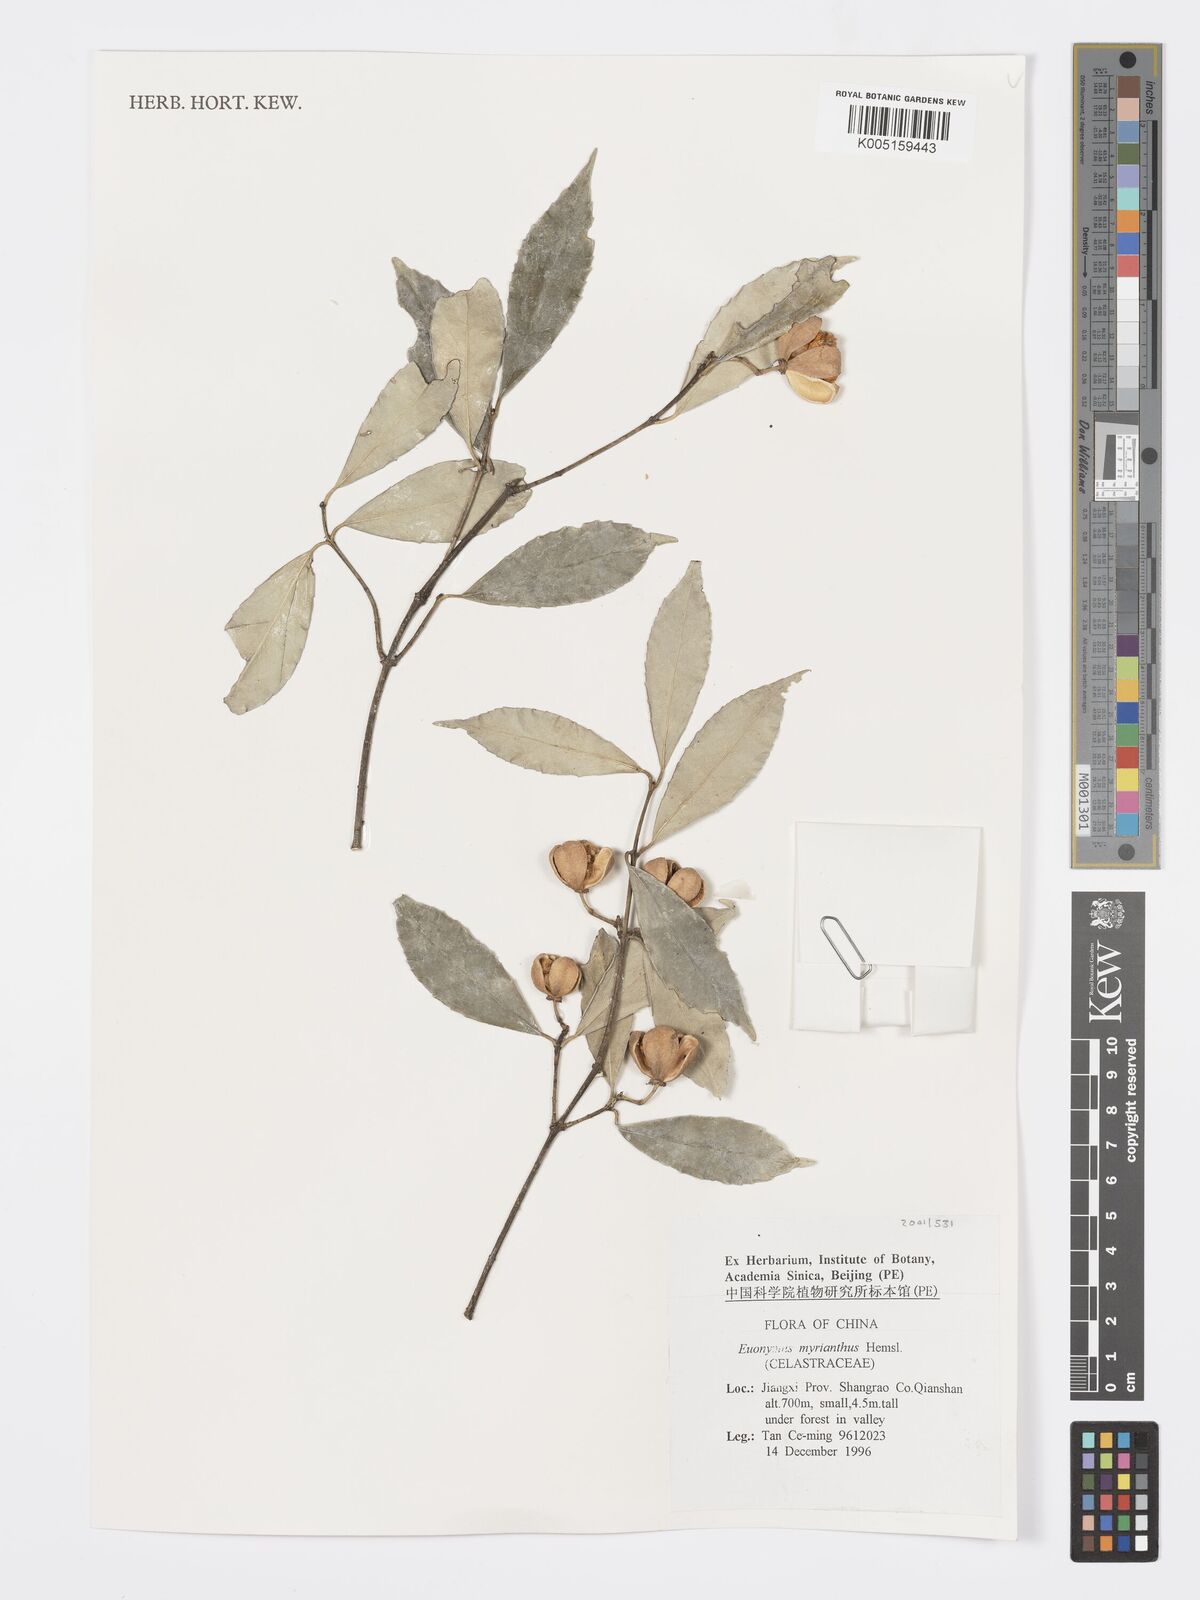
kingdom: Plantae
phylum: Tracheophyta
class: Magnoliopsida
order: Celastrales
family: Celastraceae
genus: Euonymus
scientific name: Euonymus myrianthus
